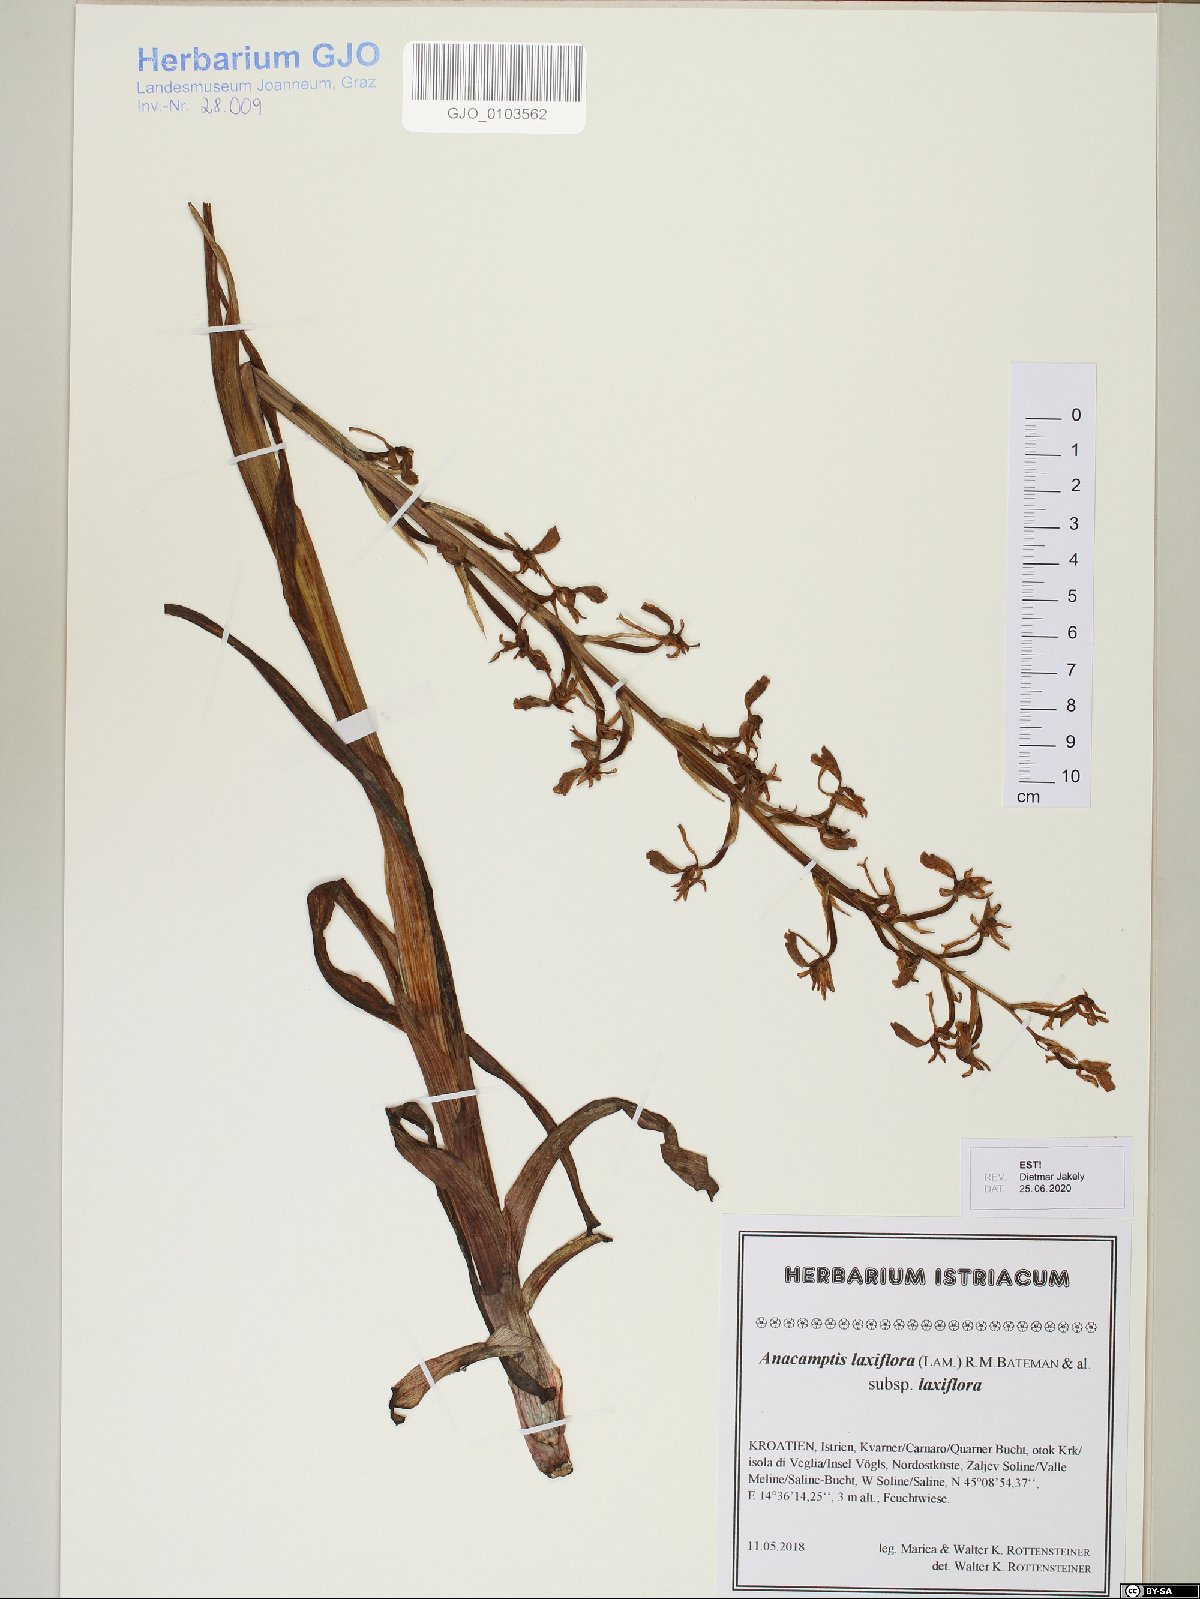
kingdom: Plantae
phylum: Tracheophyta
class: Liliopsida
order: Asparagales
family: Orchidaceae
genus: Anacamptis
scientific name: Anacamptis laxiflora
